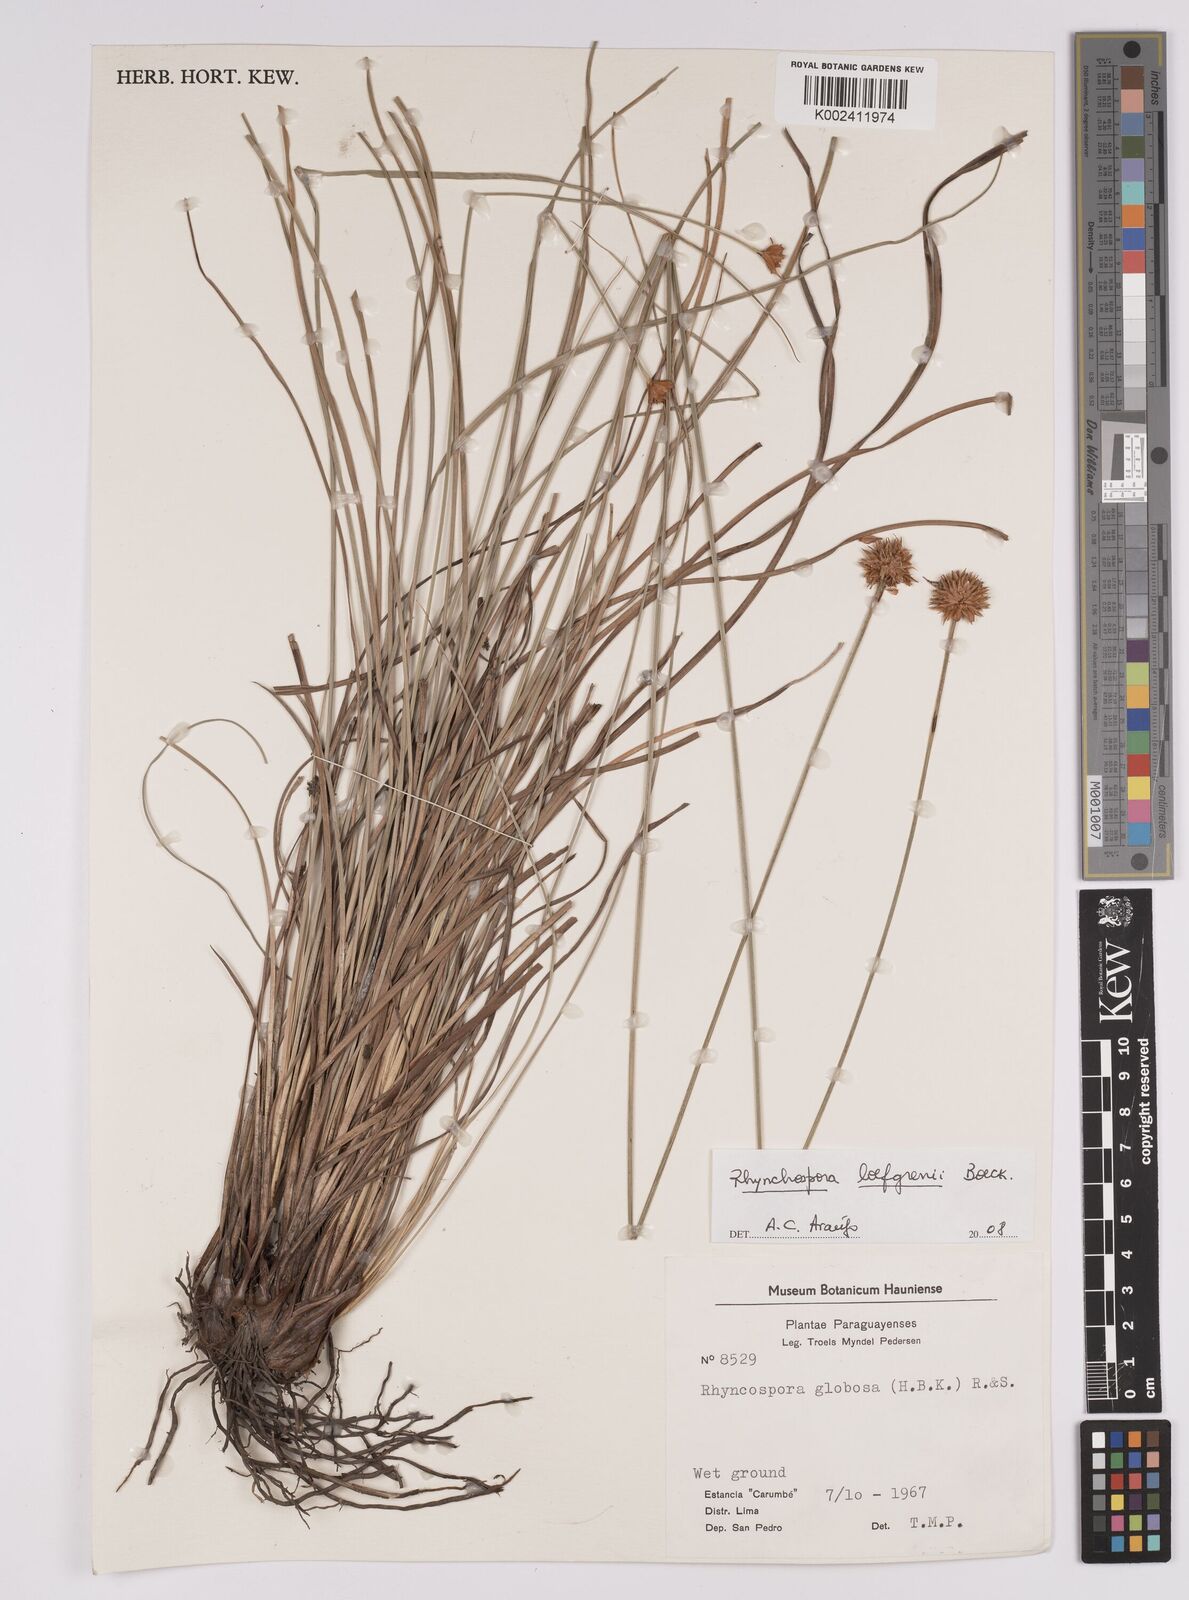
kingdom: Plantae
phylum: Tracheophyta
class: Liliopsida
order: Poales
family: Cyperaceae
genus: Rhynchospora
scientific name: Rhynchospora loefgrenii
